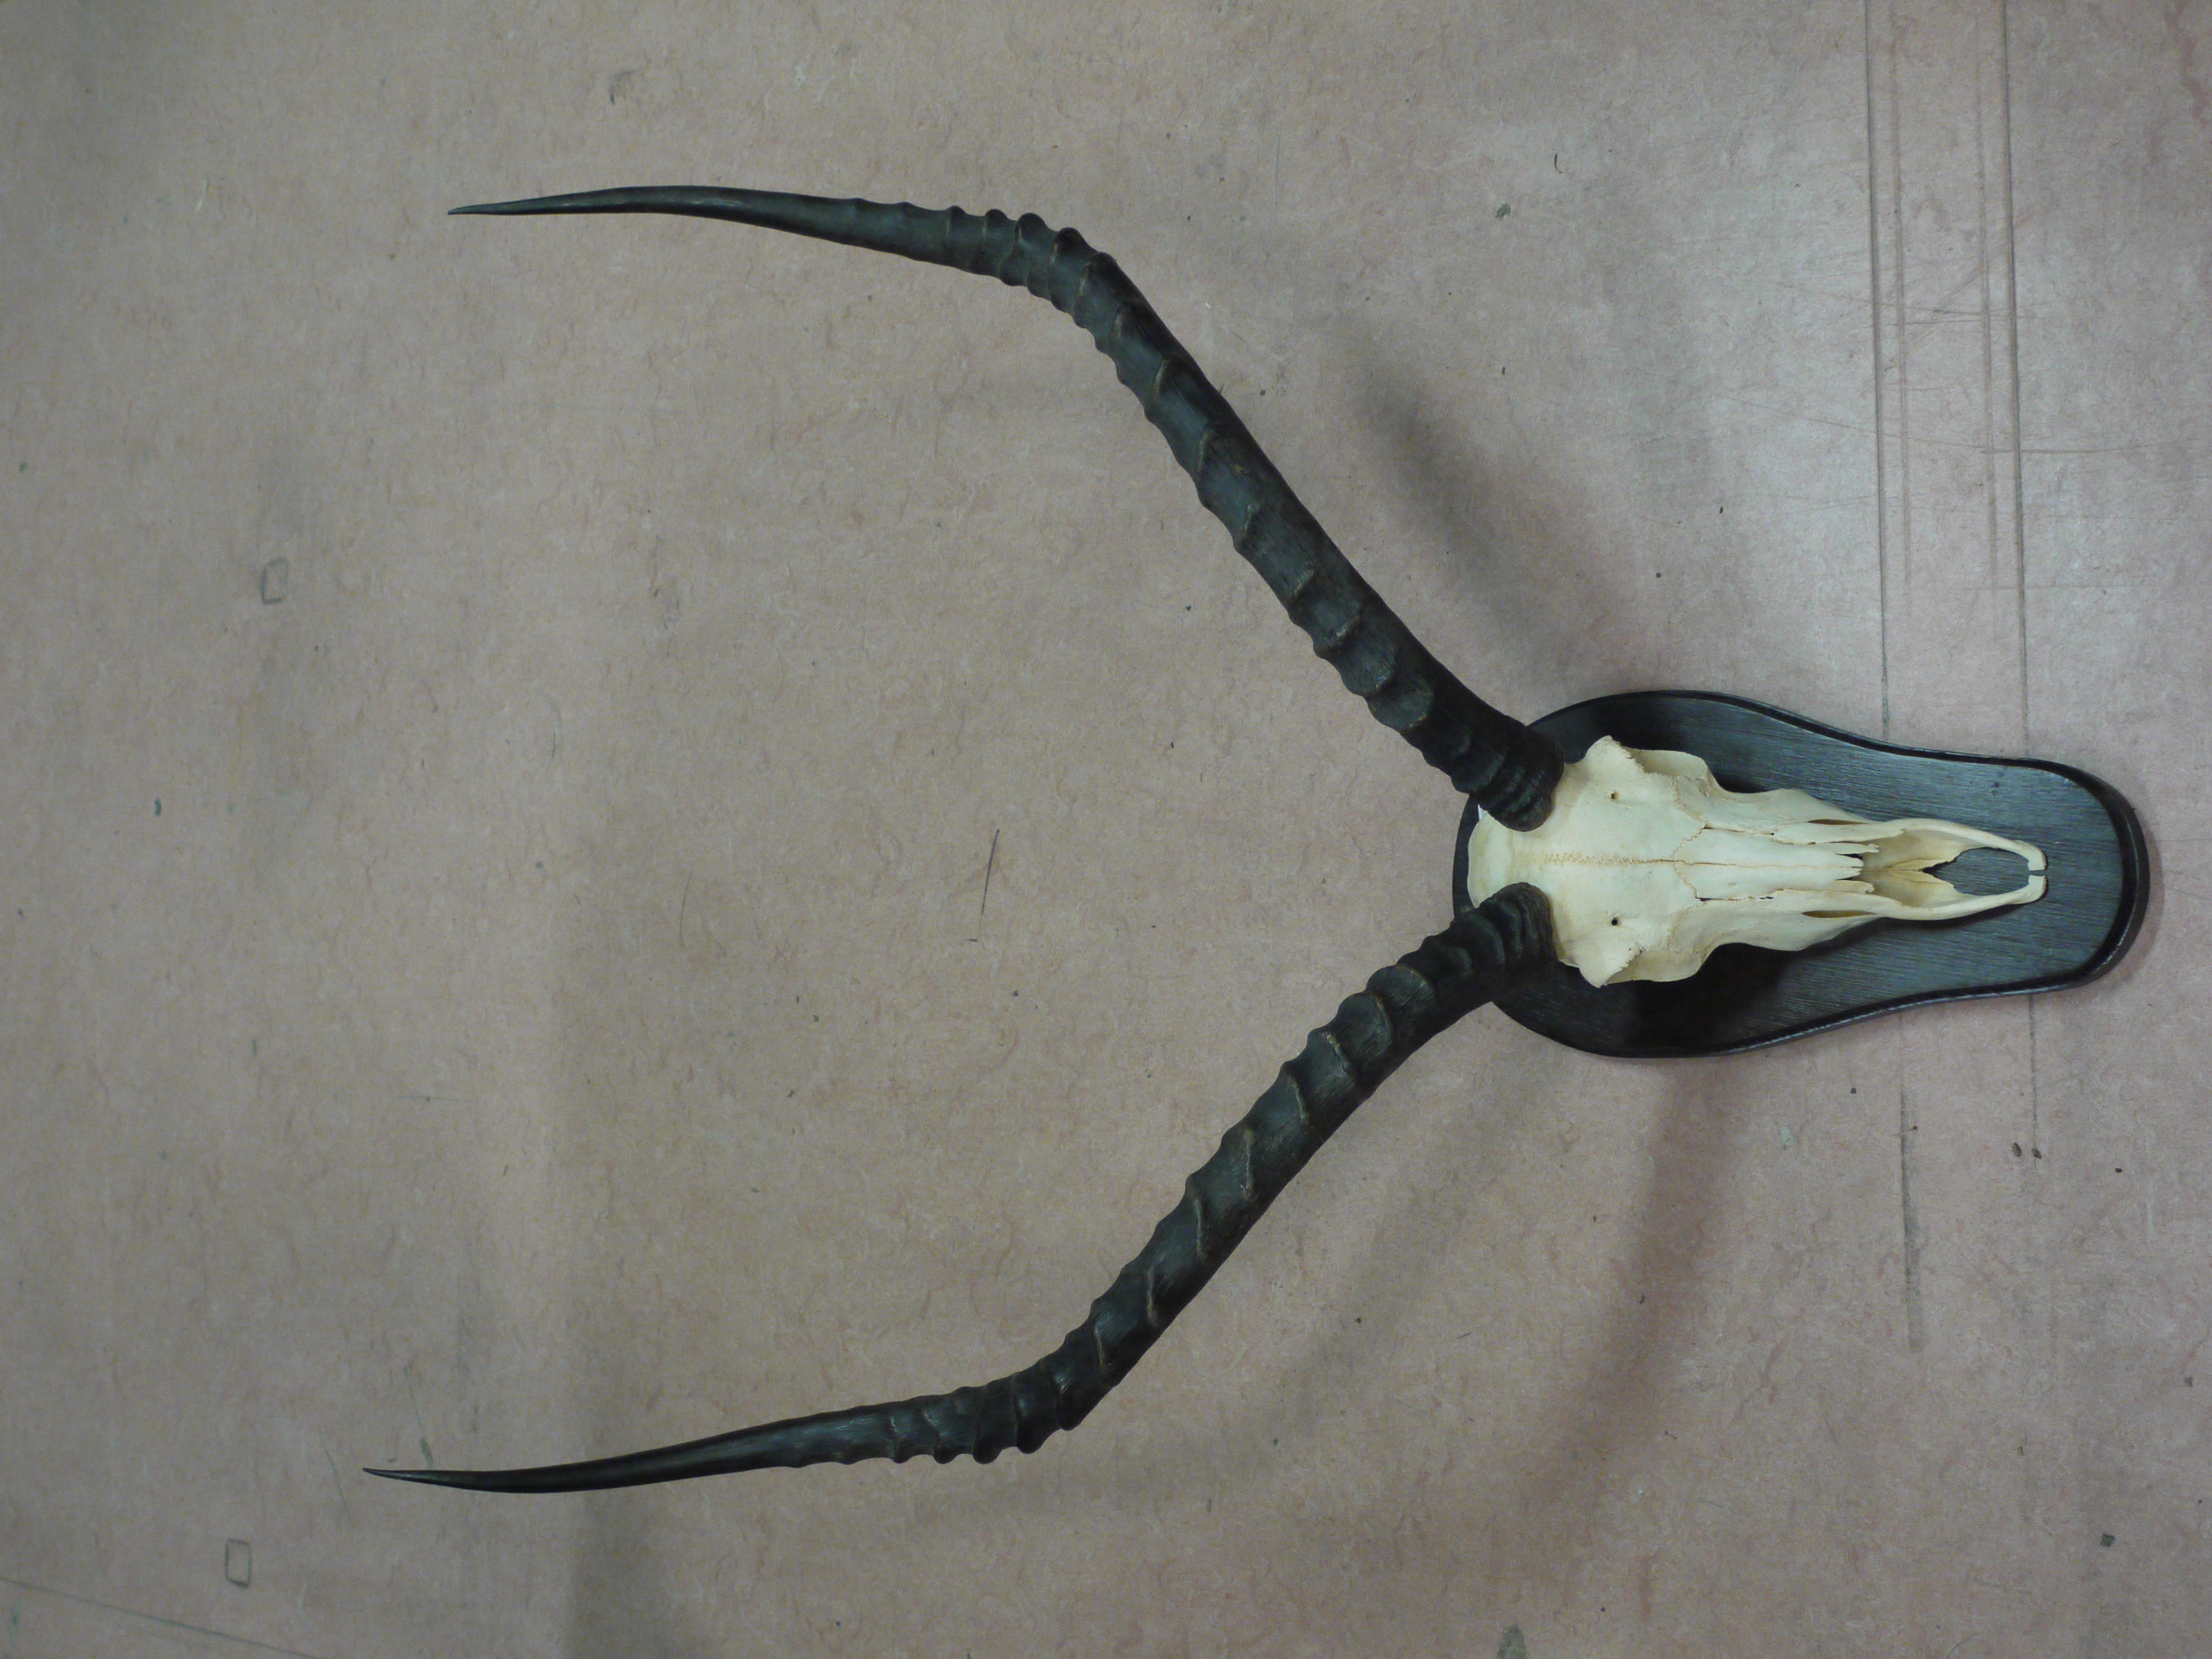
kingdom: Animalia
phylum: Chordata
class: Mammalia
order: Artiodactyla
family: Bovidae
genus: Aepyceros
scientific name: Aepyceros
